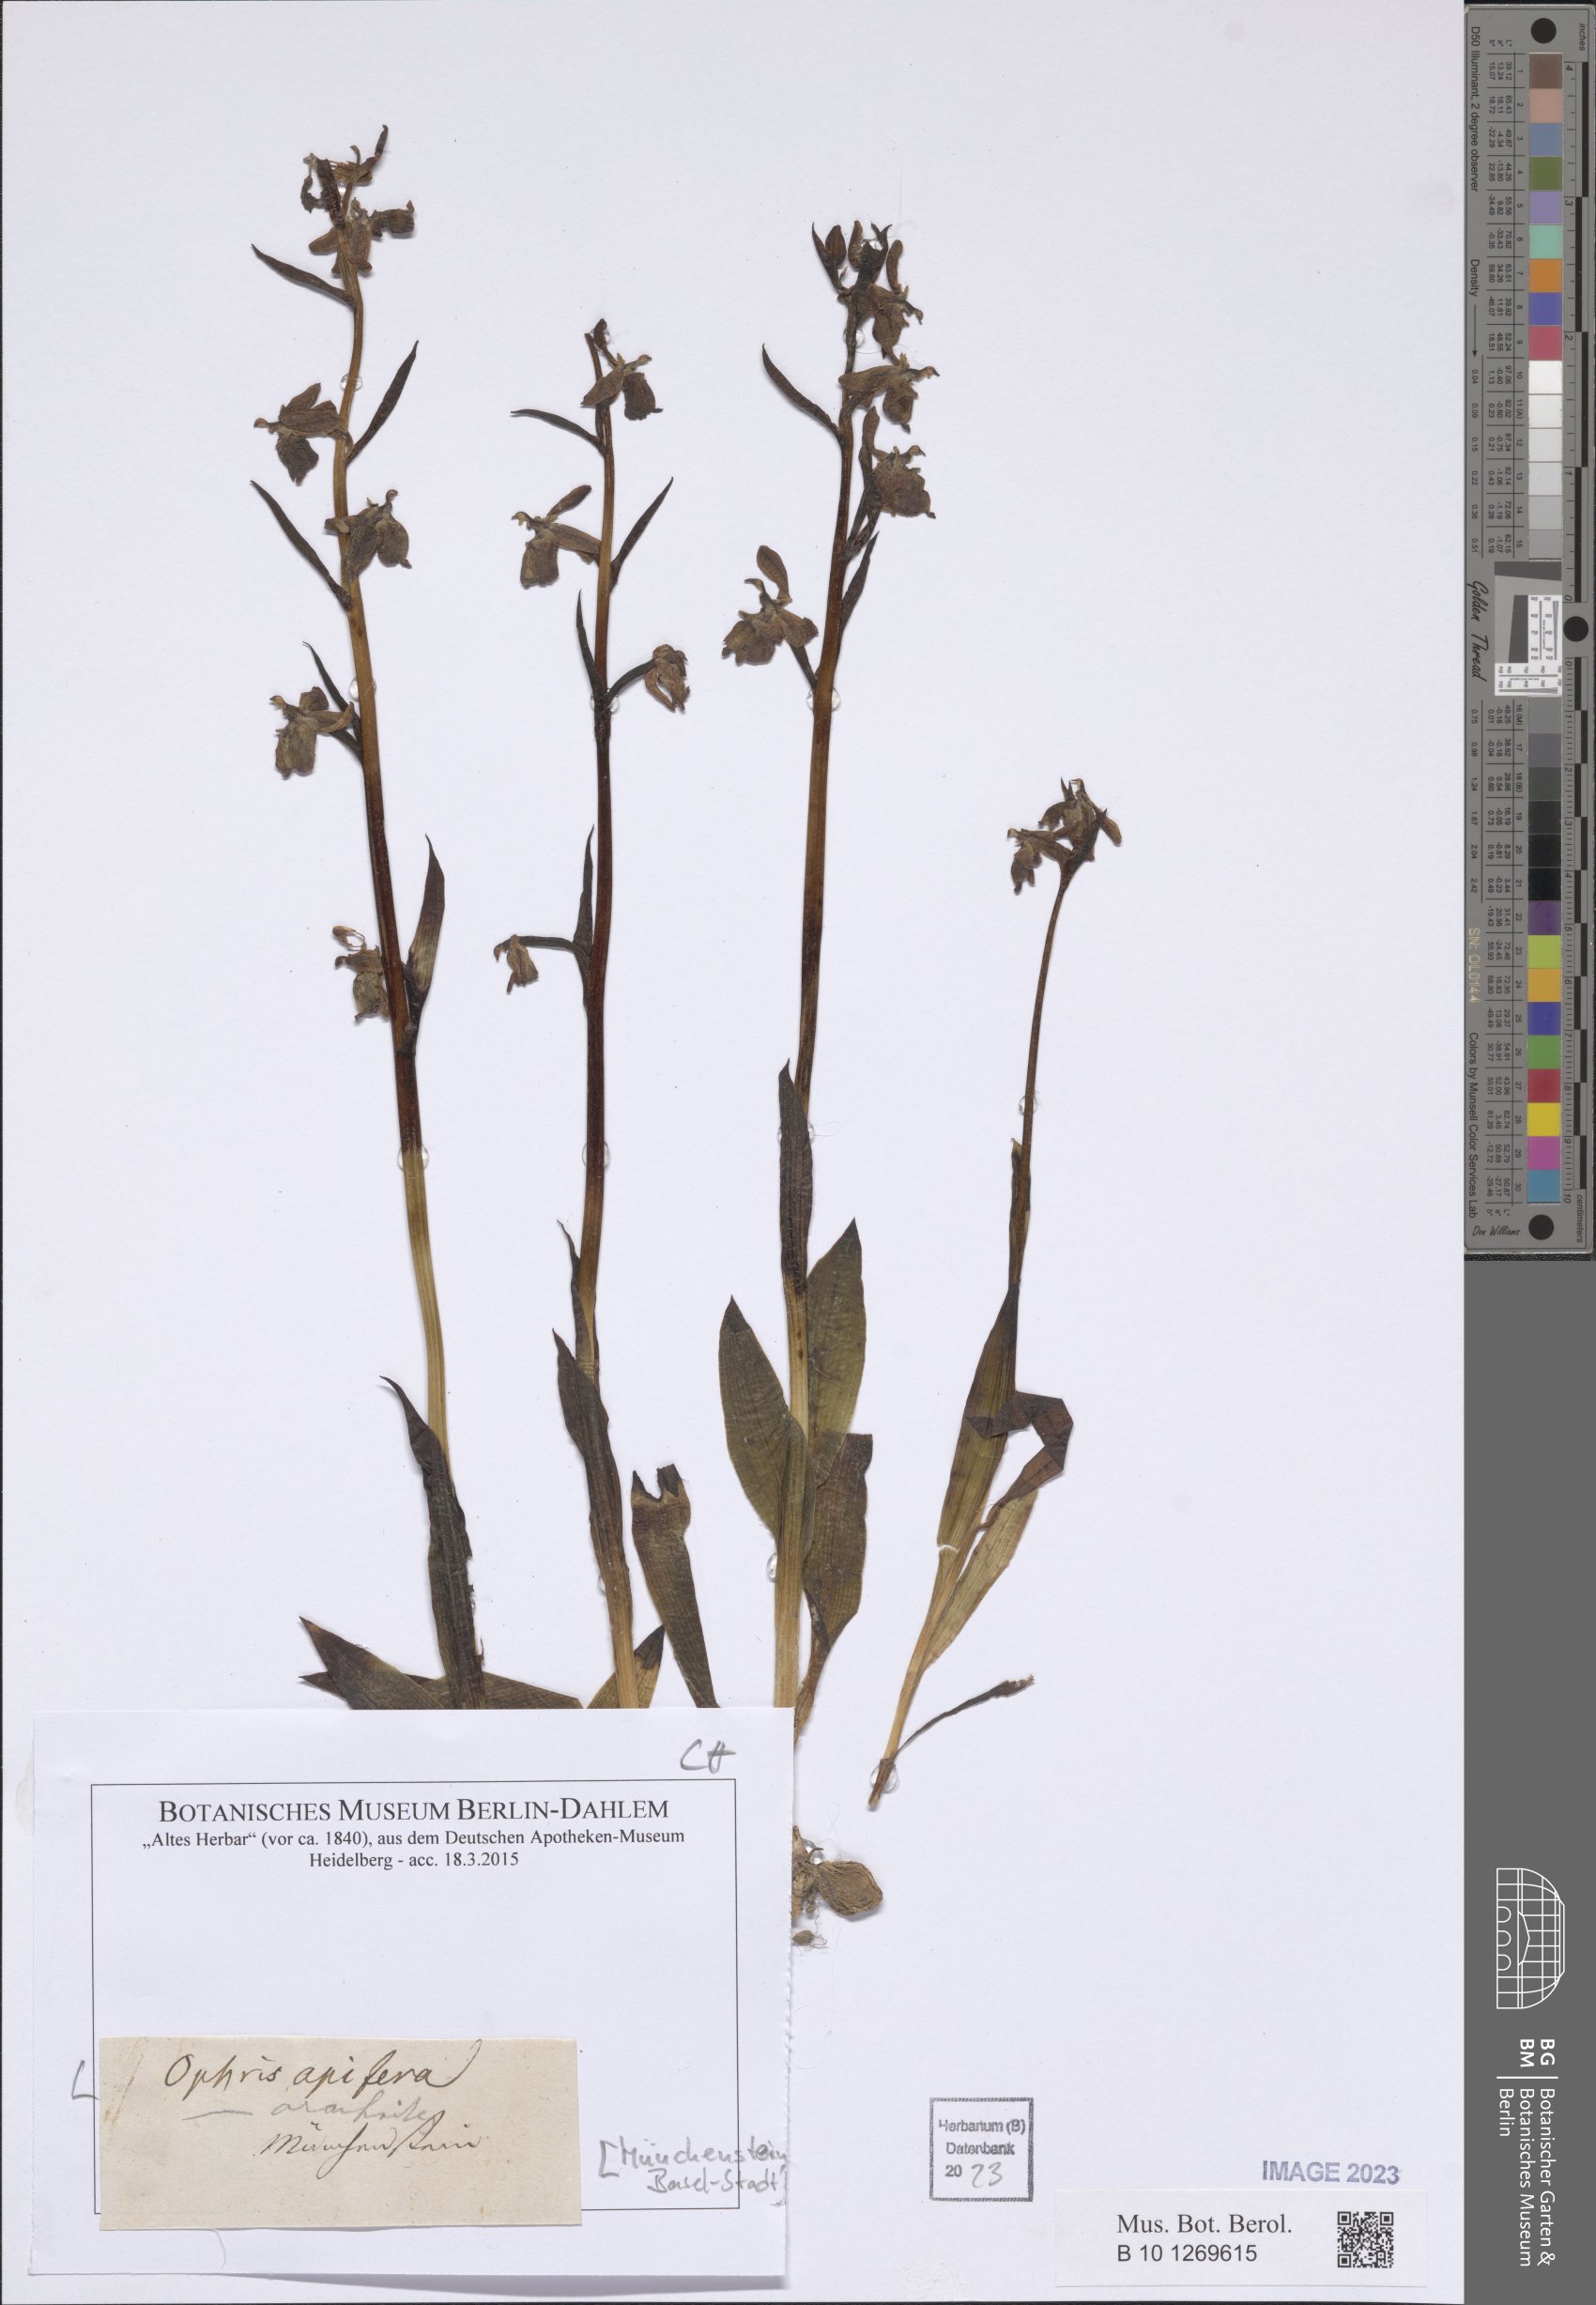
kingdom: Plantae
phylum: Tracheophyta
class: Liliopsida
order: Asparagales
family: Orchidaceae
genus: Ophrys
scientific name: Ophrys apifera
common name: Bee orchid
